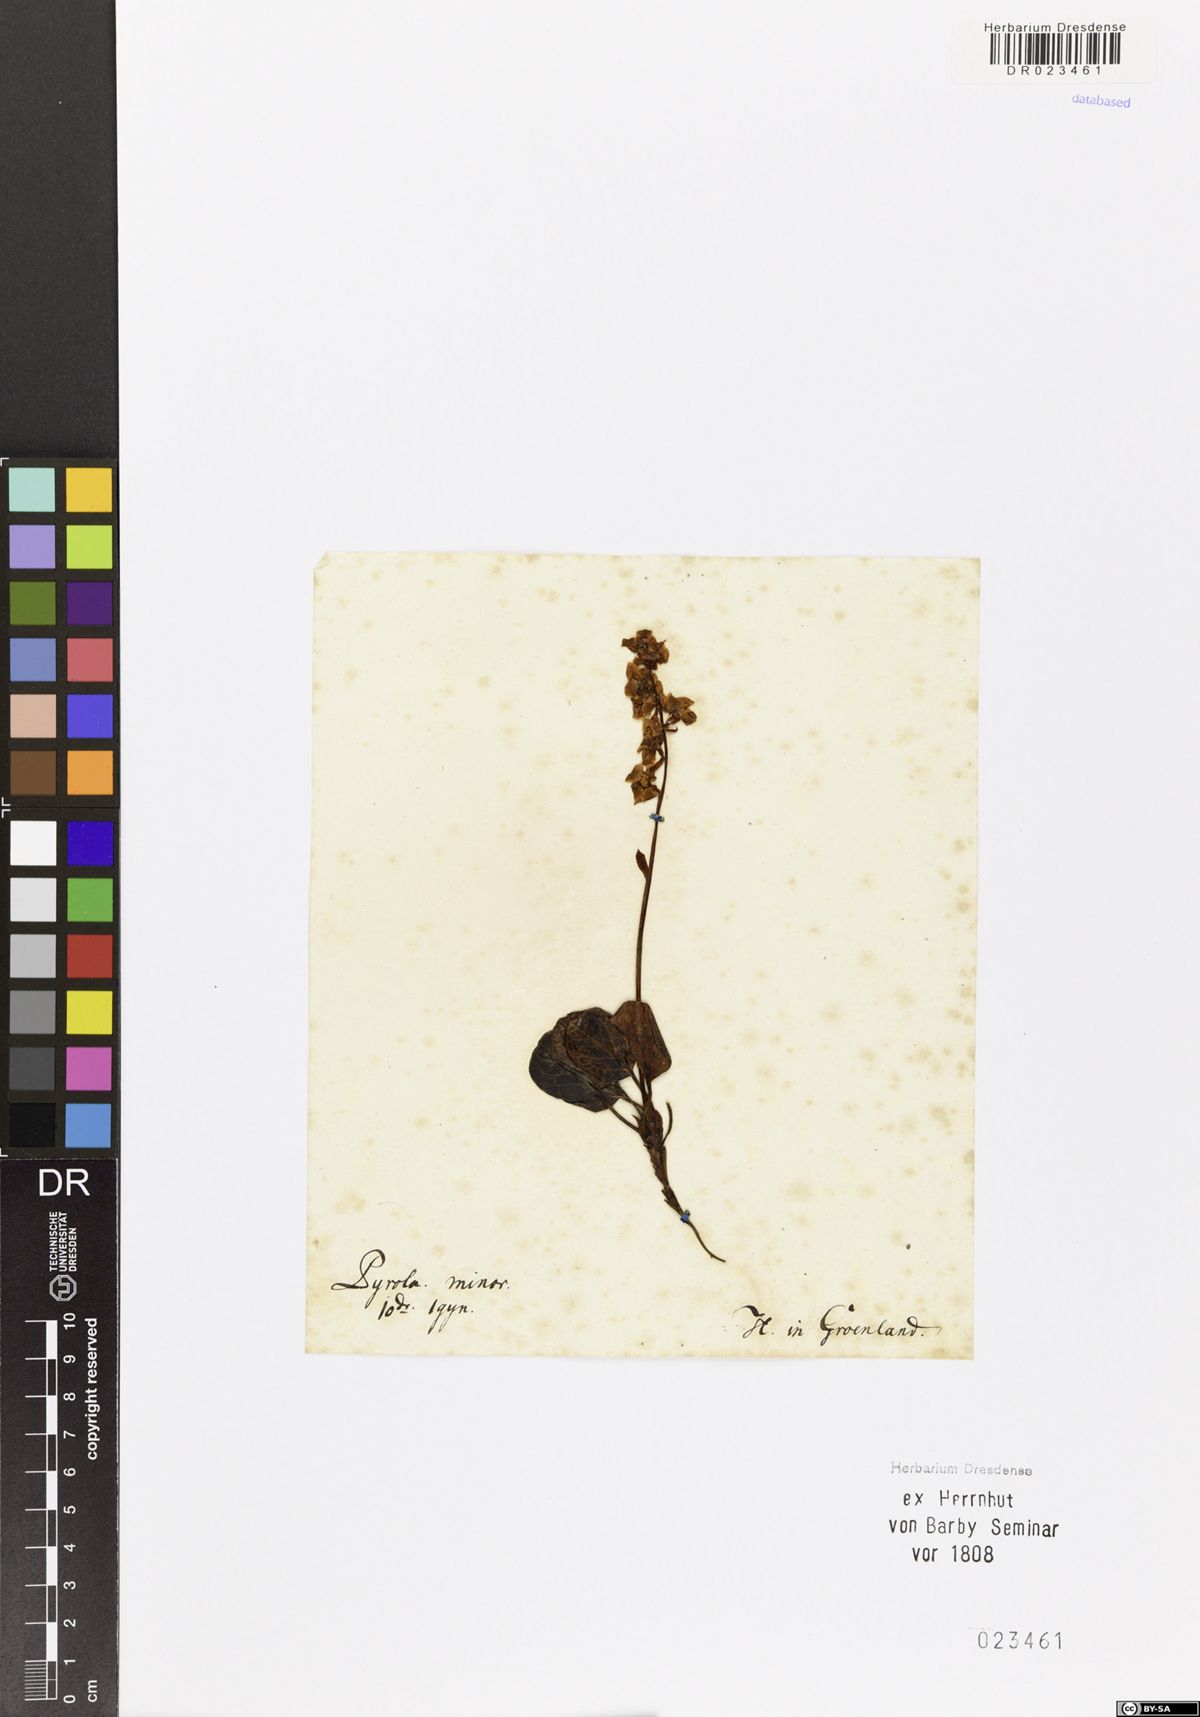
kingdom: Plantae
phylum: Tracheophyta
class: Magnoliopsida
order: Ericales
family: Ericaceae
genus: Pyrola
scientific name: Pyrola grandiflora
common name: Arctic pyrola
